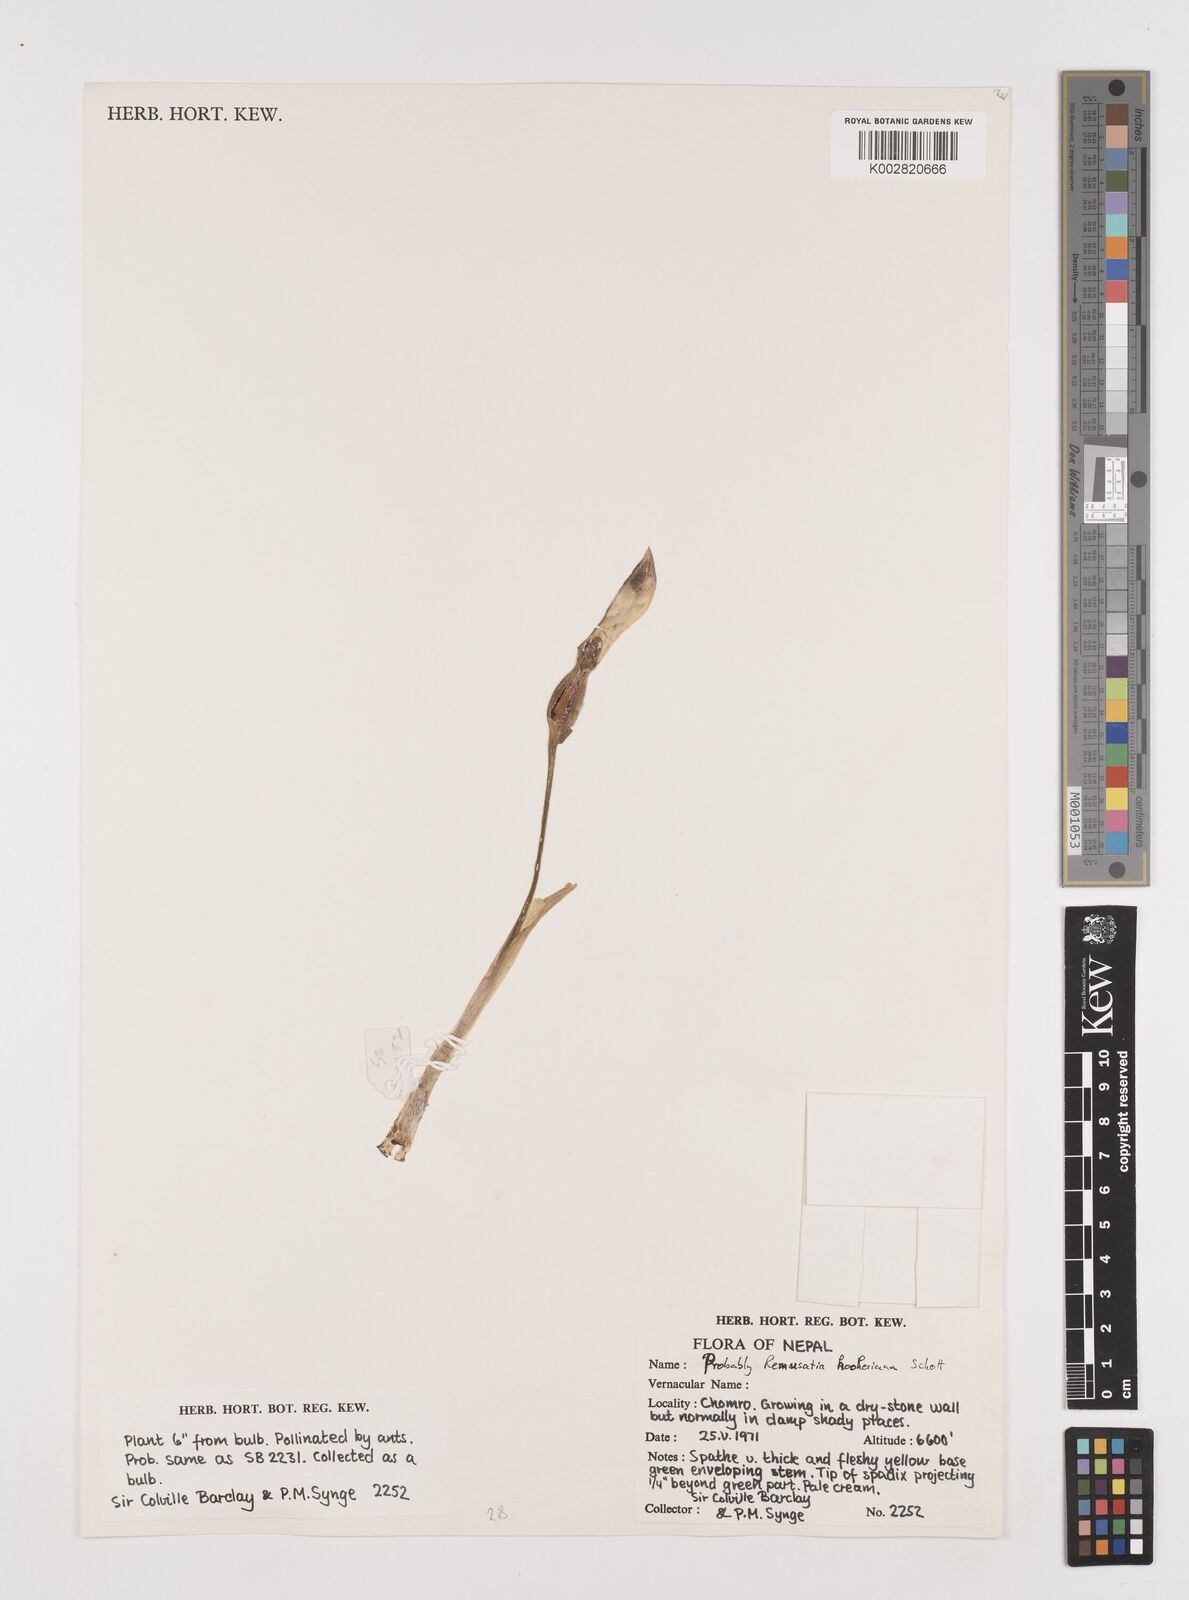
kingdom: Plantae
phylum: Tracheophyta
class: Liliopsida
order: Alismatales
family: Araceae
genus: Remusatia
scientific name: Remusatia hookeriana
